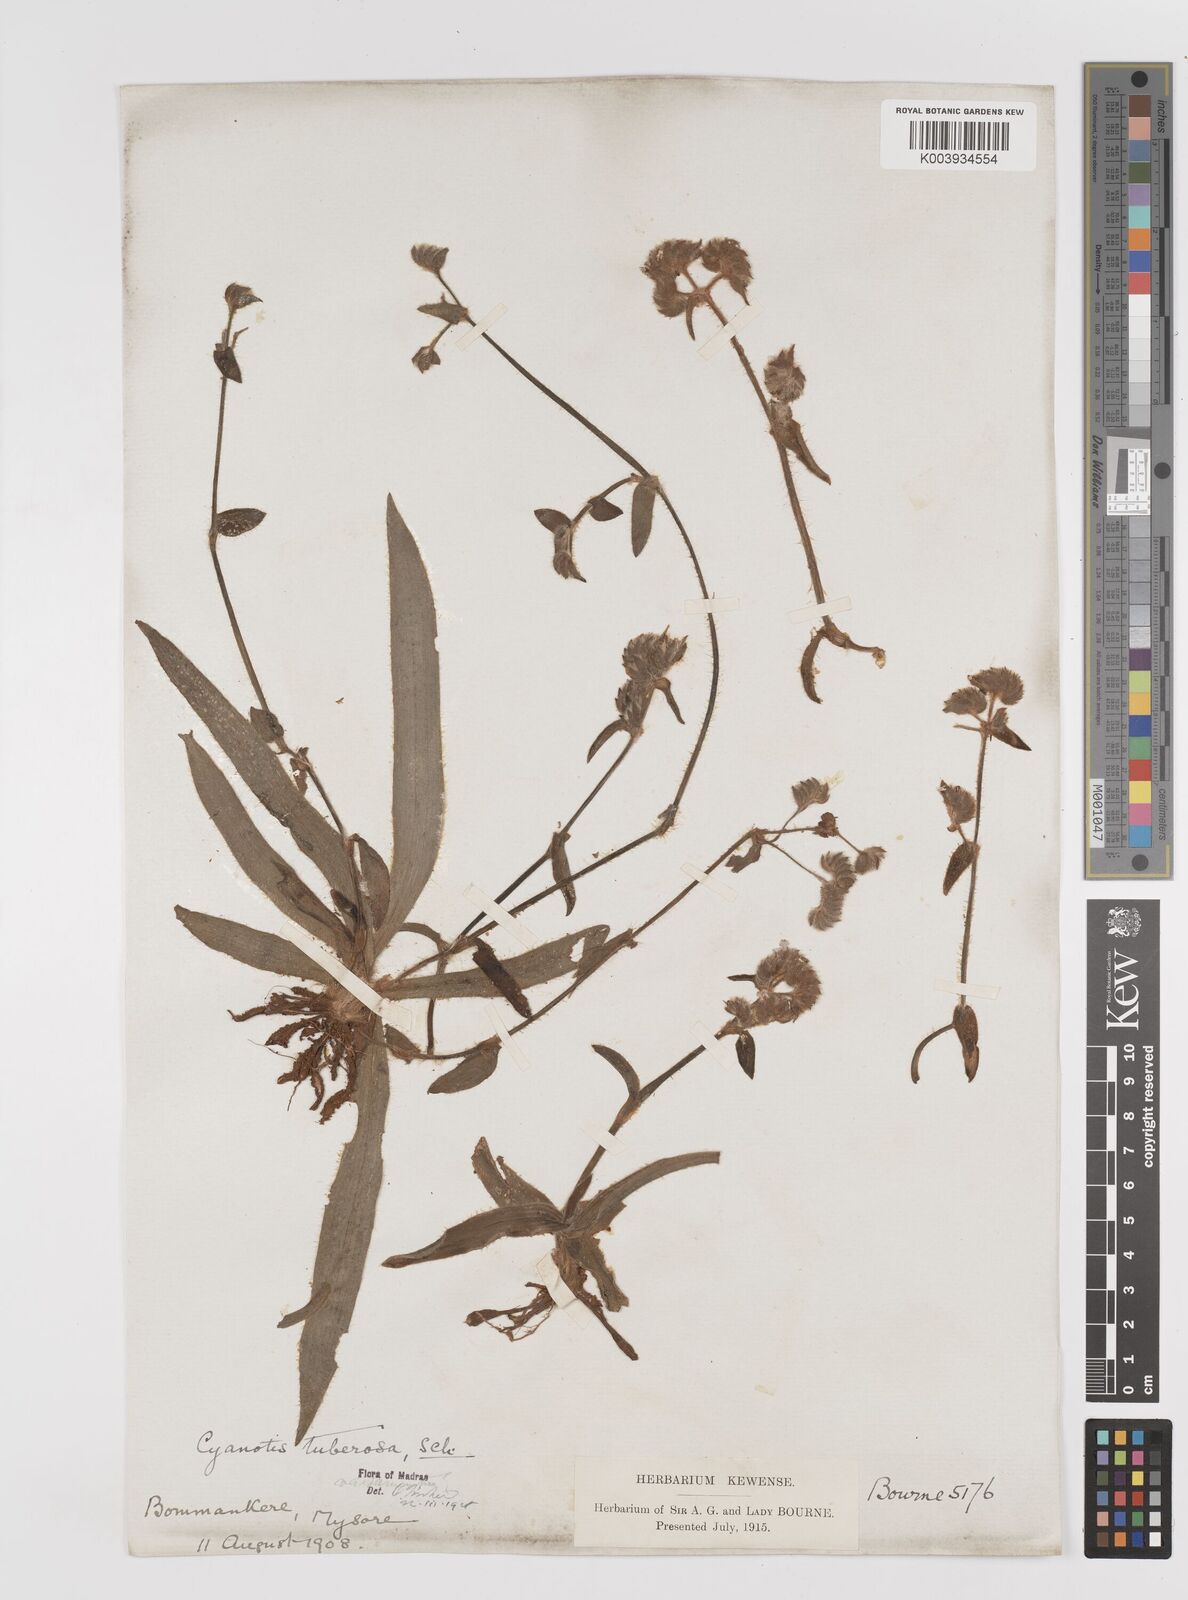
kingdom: Plantae
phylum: Tracheophyta
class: Liliopsida
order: Commelinales
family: Commelinaceae
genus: Cyanotis
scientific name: Cyanotis tuberosa
